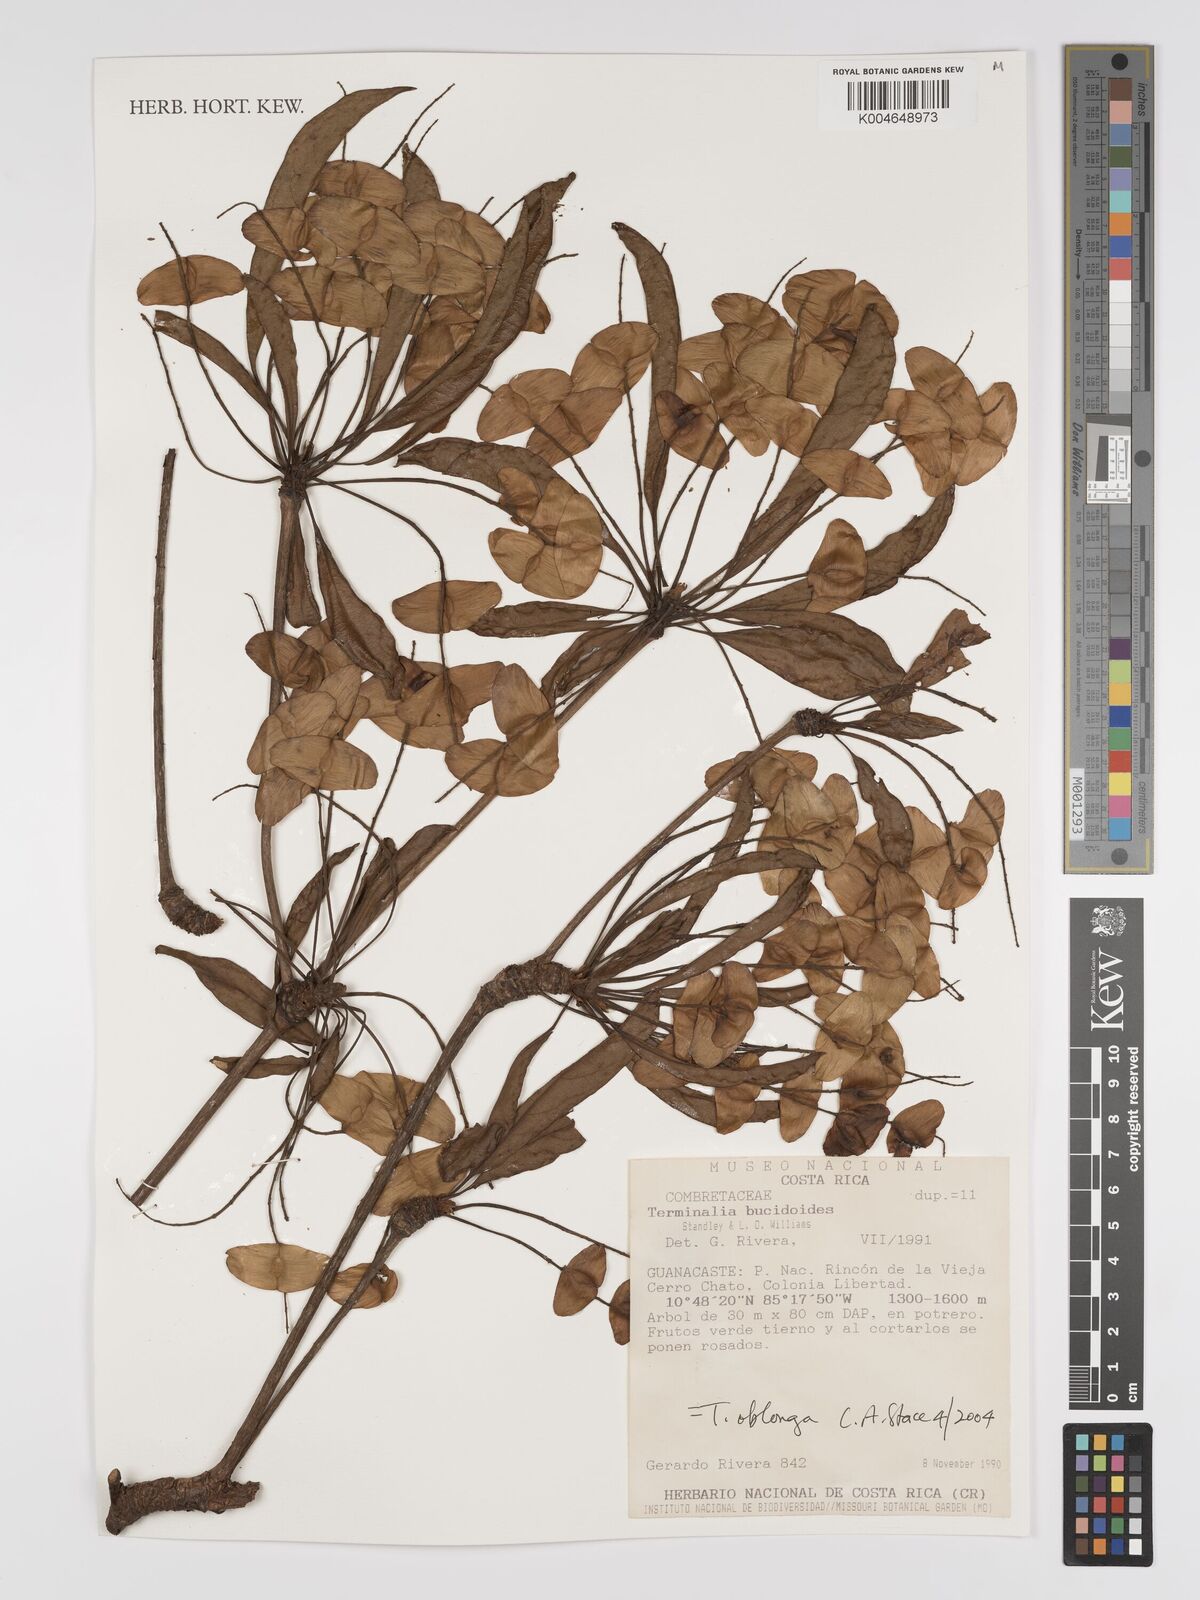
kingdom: Plantae
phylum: Tracheophyta
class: Magnoliopsida
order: Myrtales
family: Combretaceae
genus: Terminalia
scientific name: Terminalia oblonga
